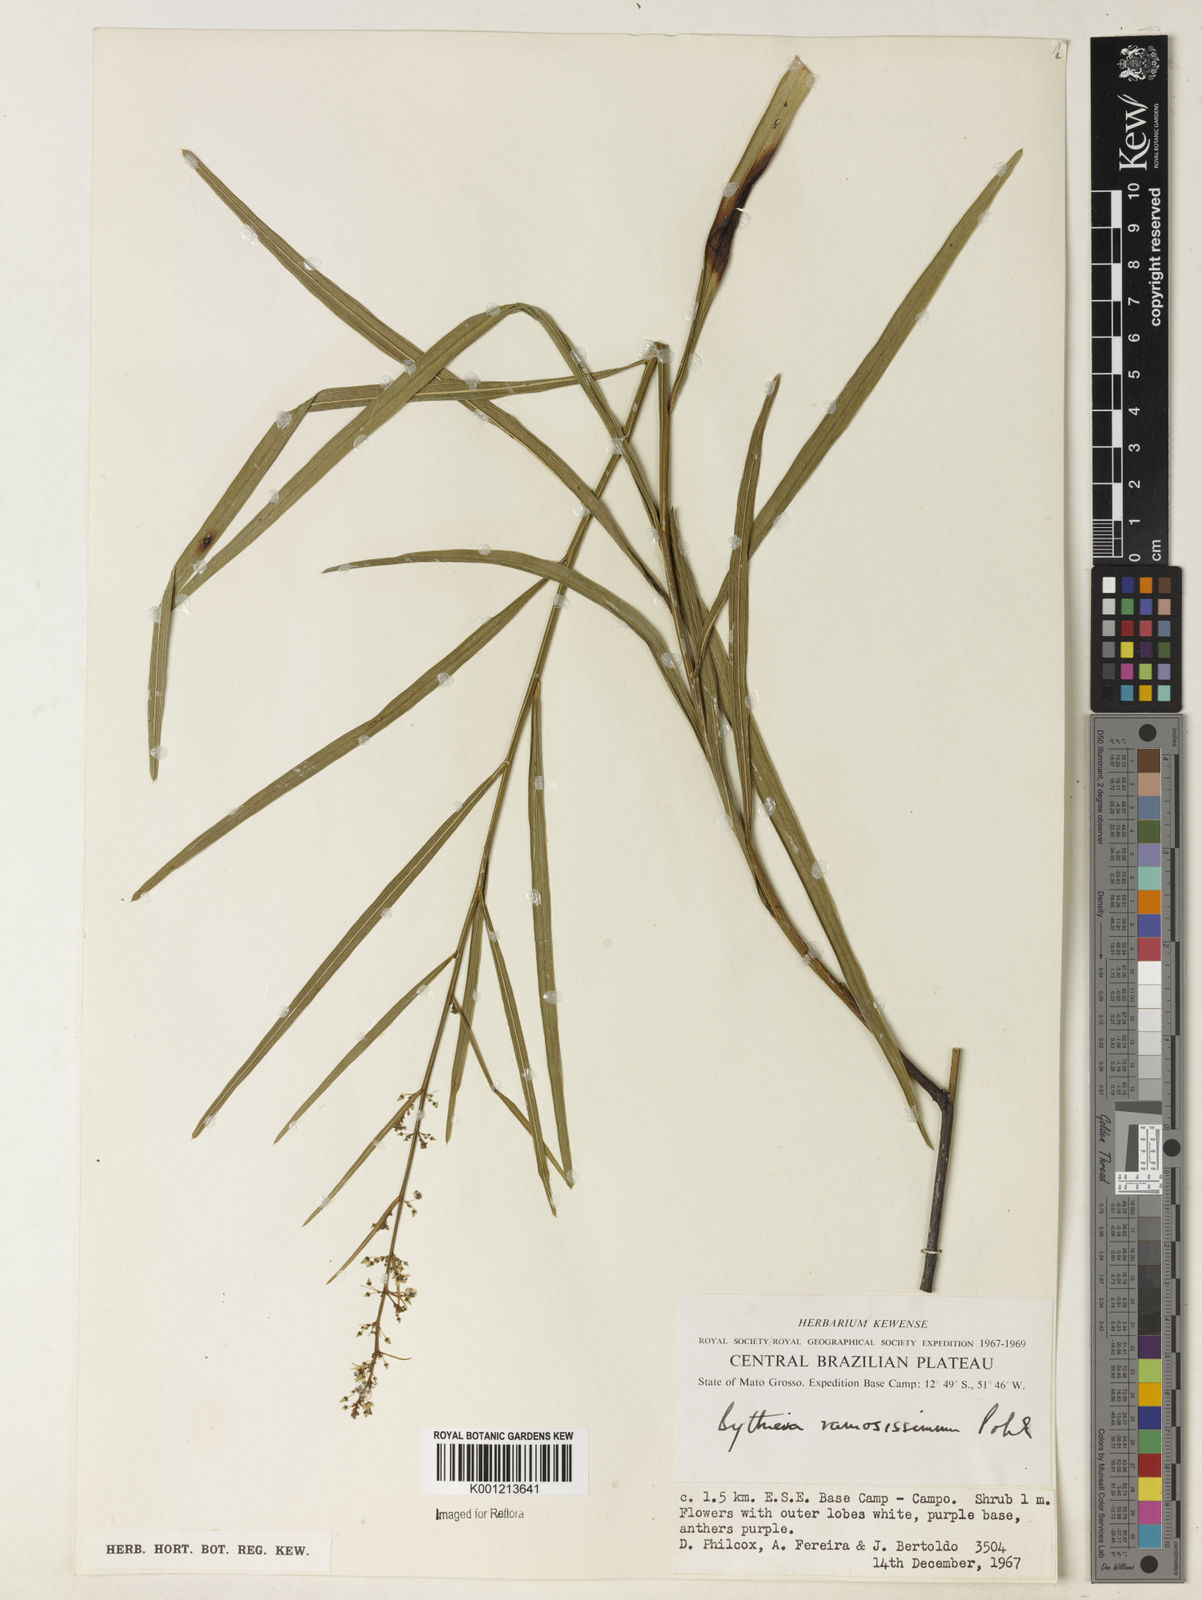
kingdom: Plantae
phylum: Tracheophyta
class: Magnoliopsida
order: Malvales
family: Malvaceae
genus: Byttneria
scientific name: Byttneria ramosissima
